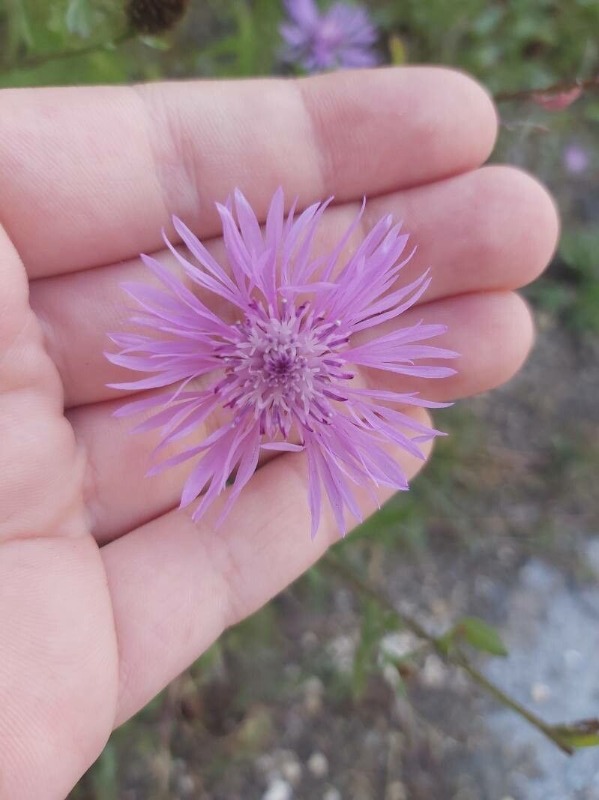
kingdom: Plantae
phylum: Tracheophyta
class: Magnoliopsida
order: Asterales
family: Asteraceae
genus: Centaurea
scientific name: Centaurea jacea
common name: Almindelig knopurt
